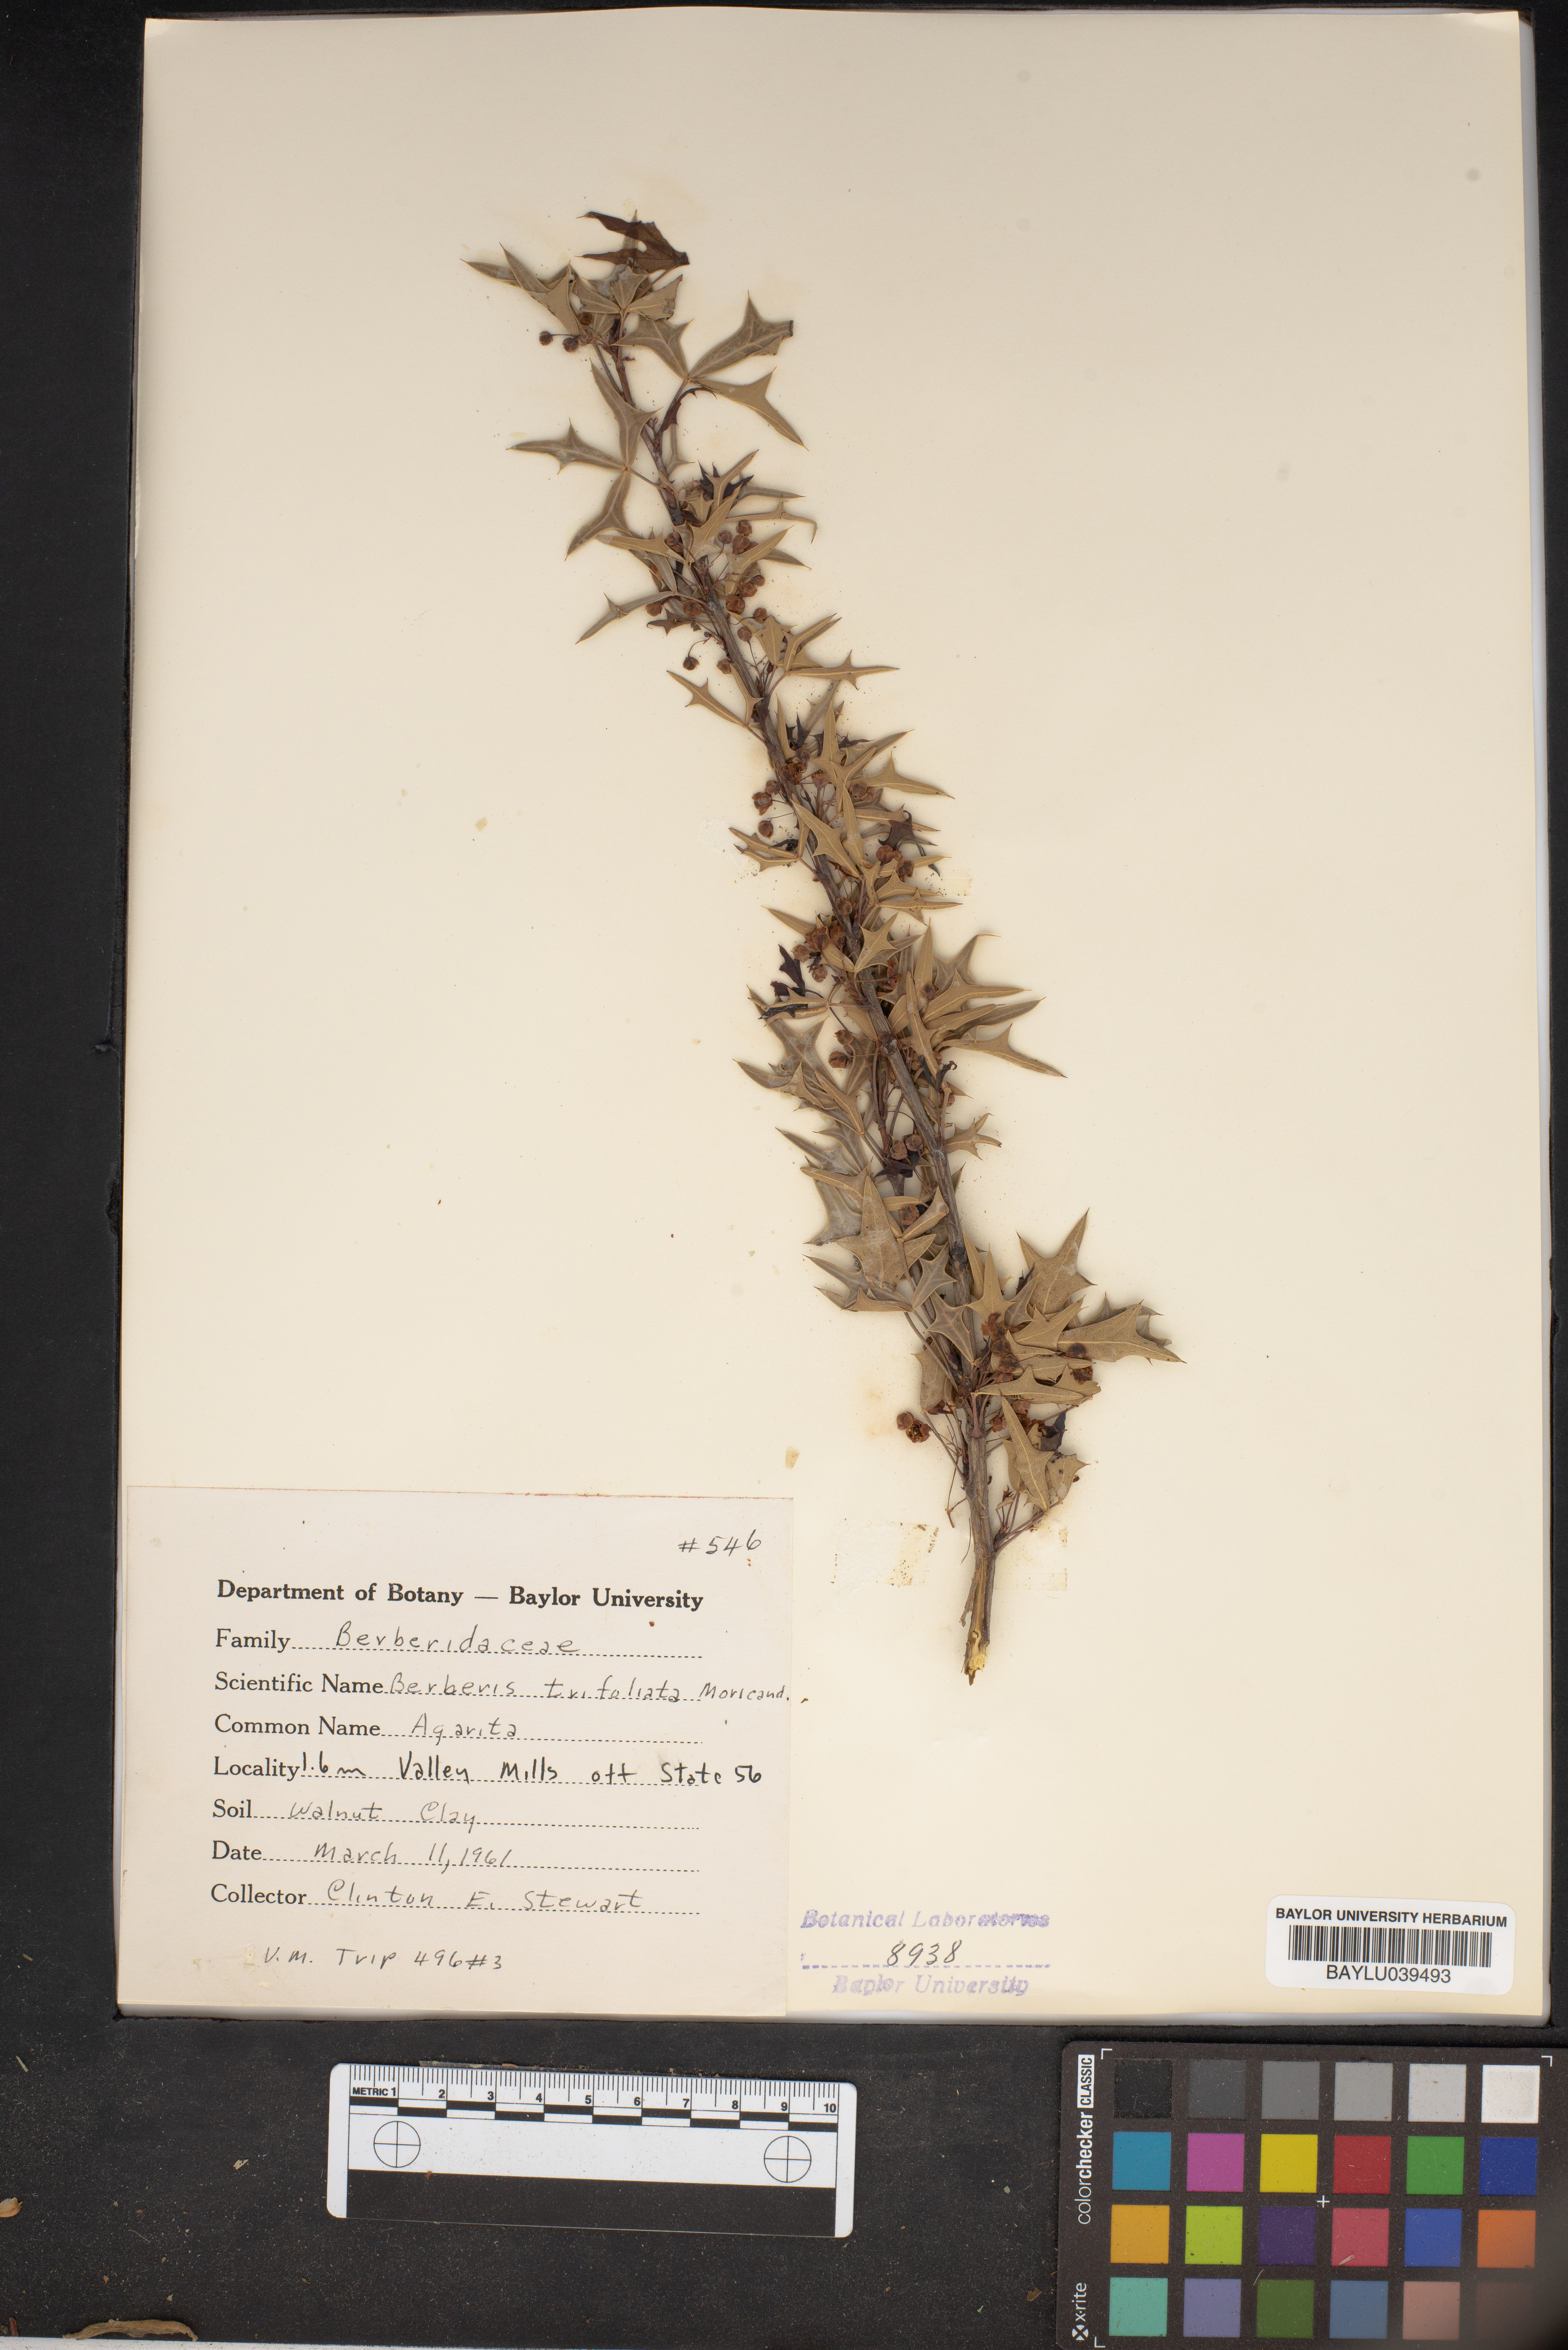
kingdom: Plantae
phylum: Tracheophyta
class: Magnoliopsida
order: Ranunculales
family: Berberidaceae
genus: Alloberberis
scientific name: Alloberberis fremontii
